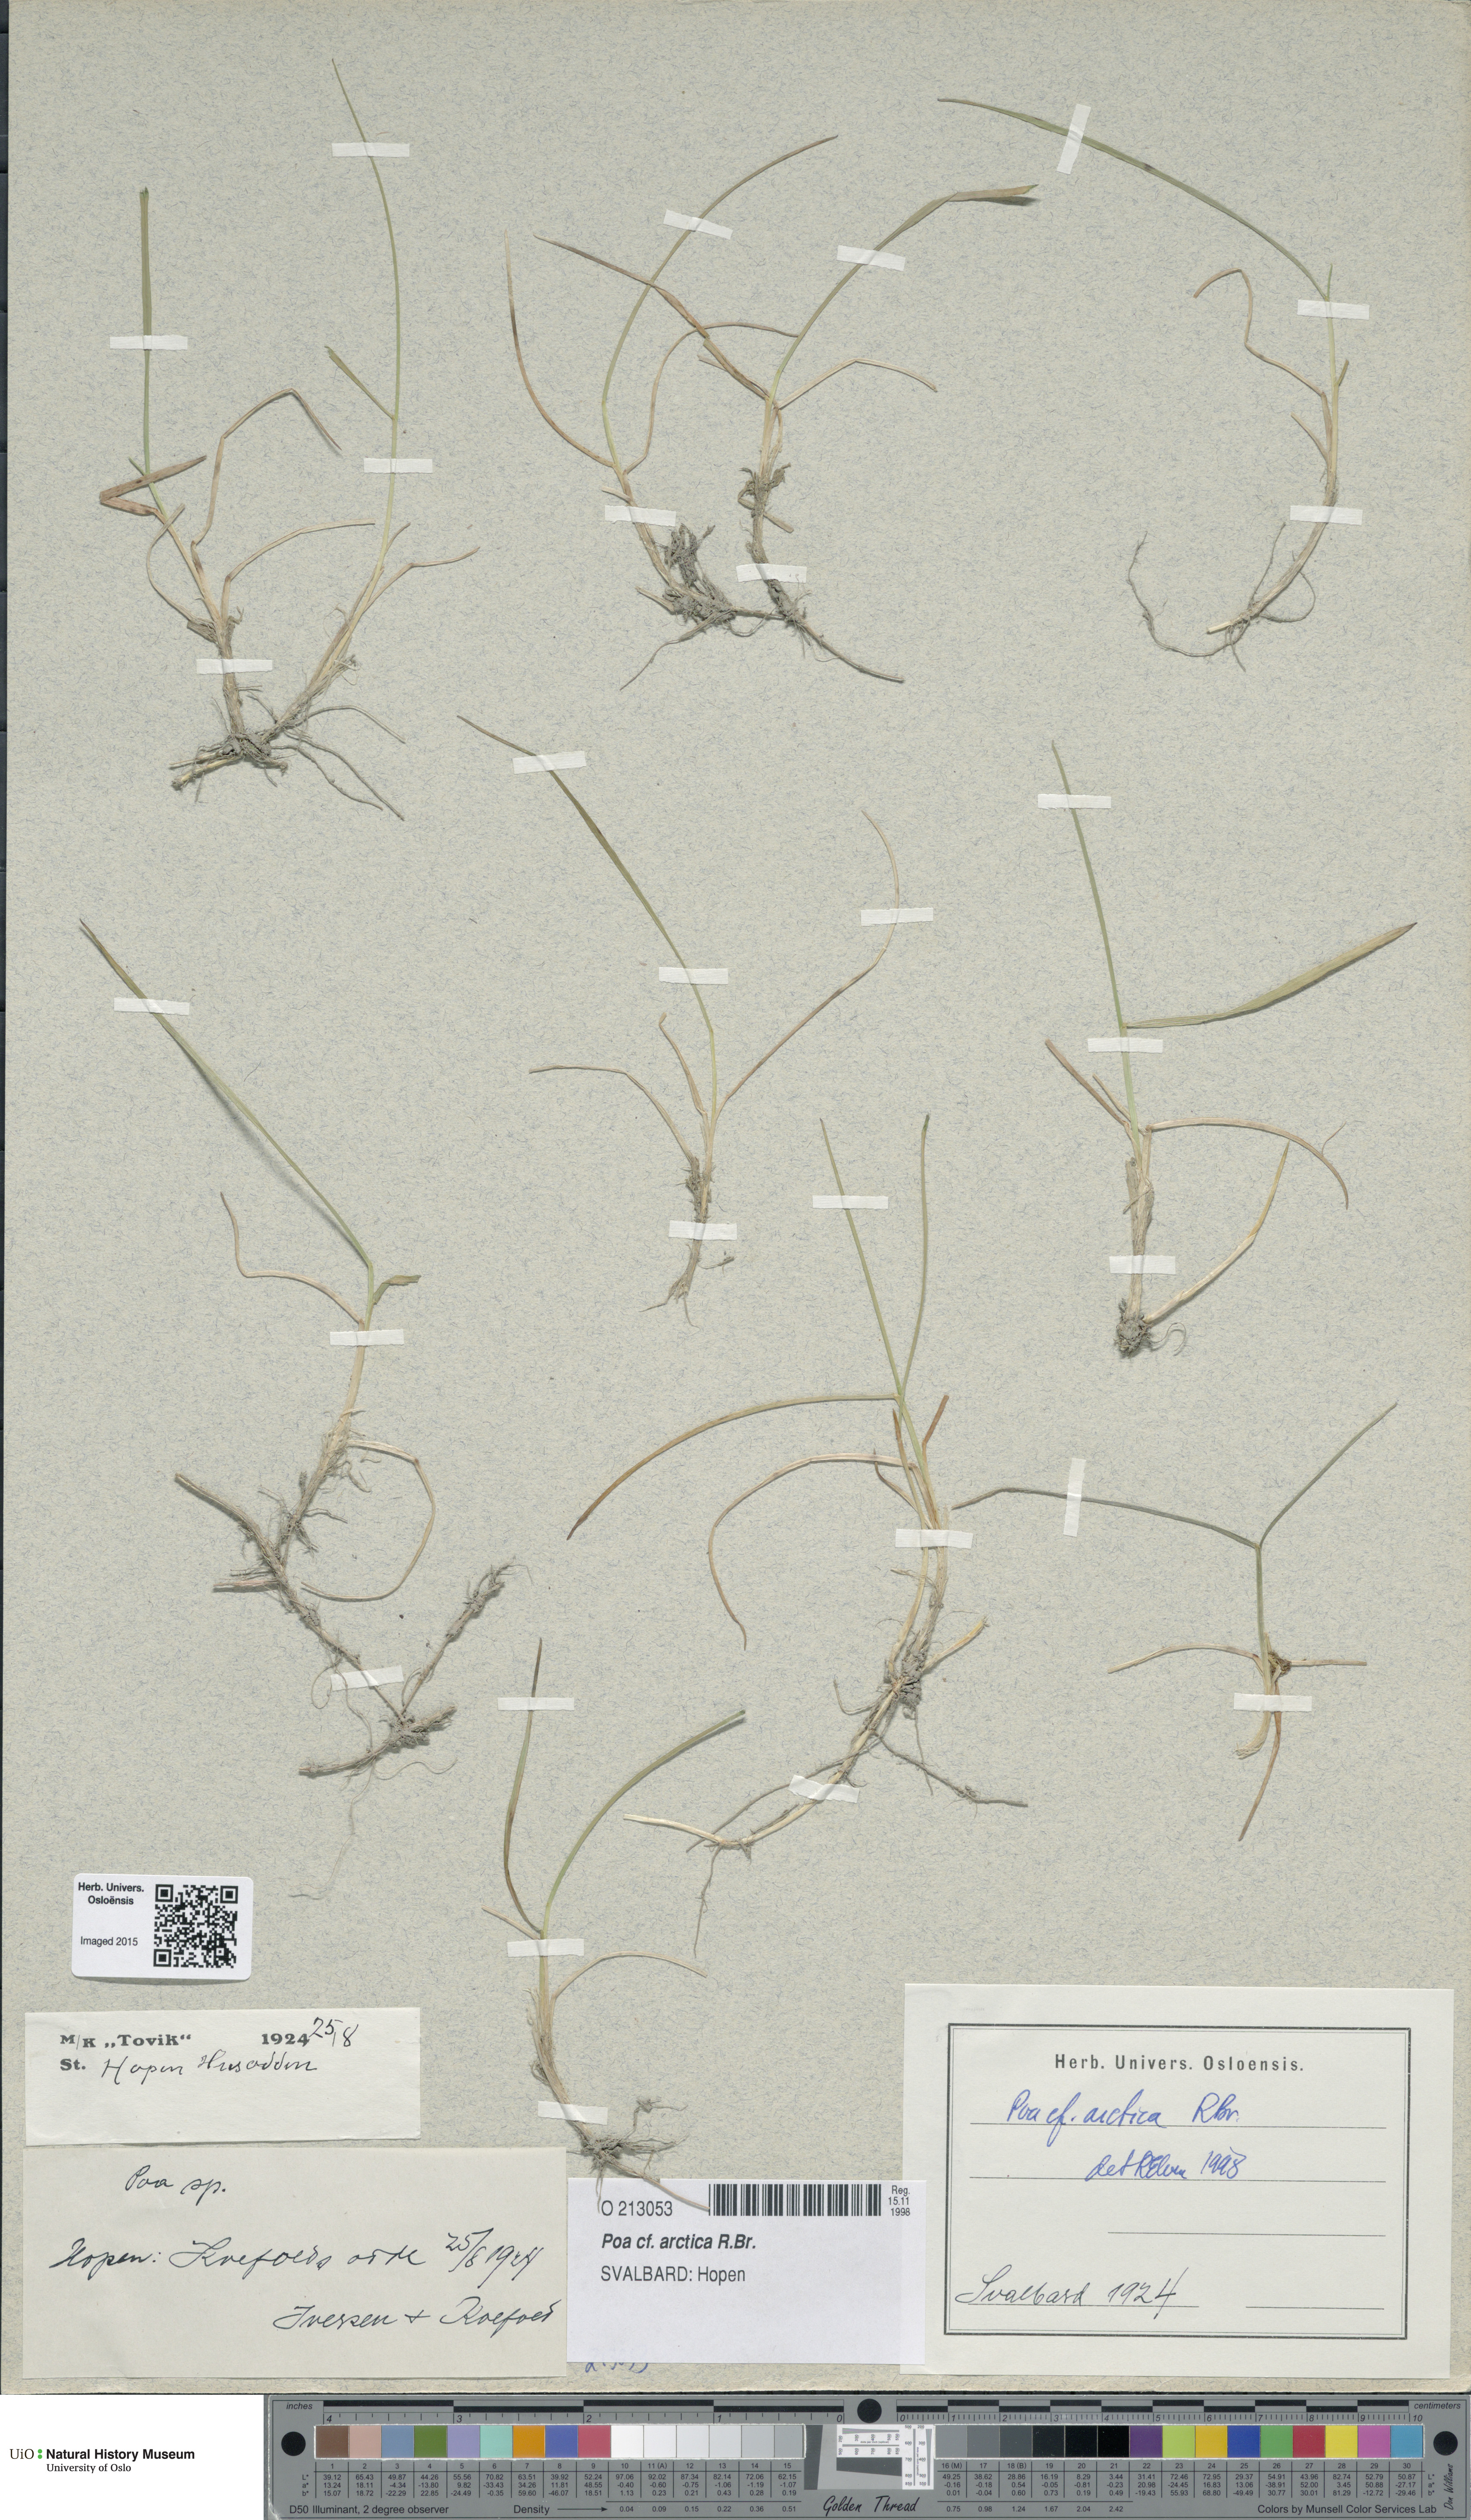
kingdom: Plantae
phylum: Tracheophyta
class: Liliopsida
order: Poales
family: Poaceae
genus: Poa
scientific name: Poa arctica
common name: Arctic bluegrass
